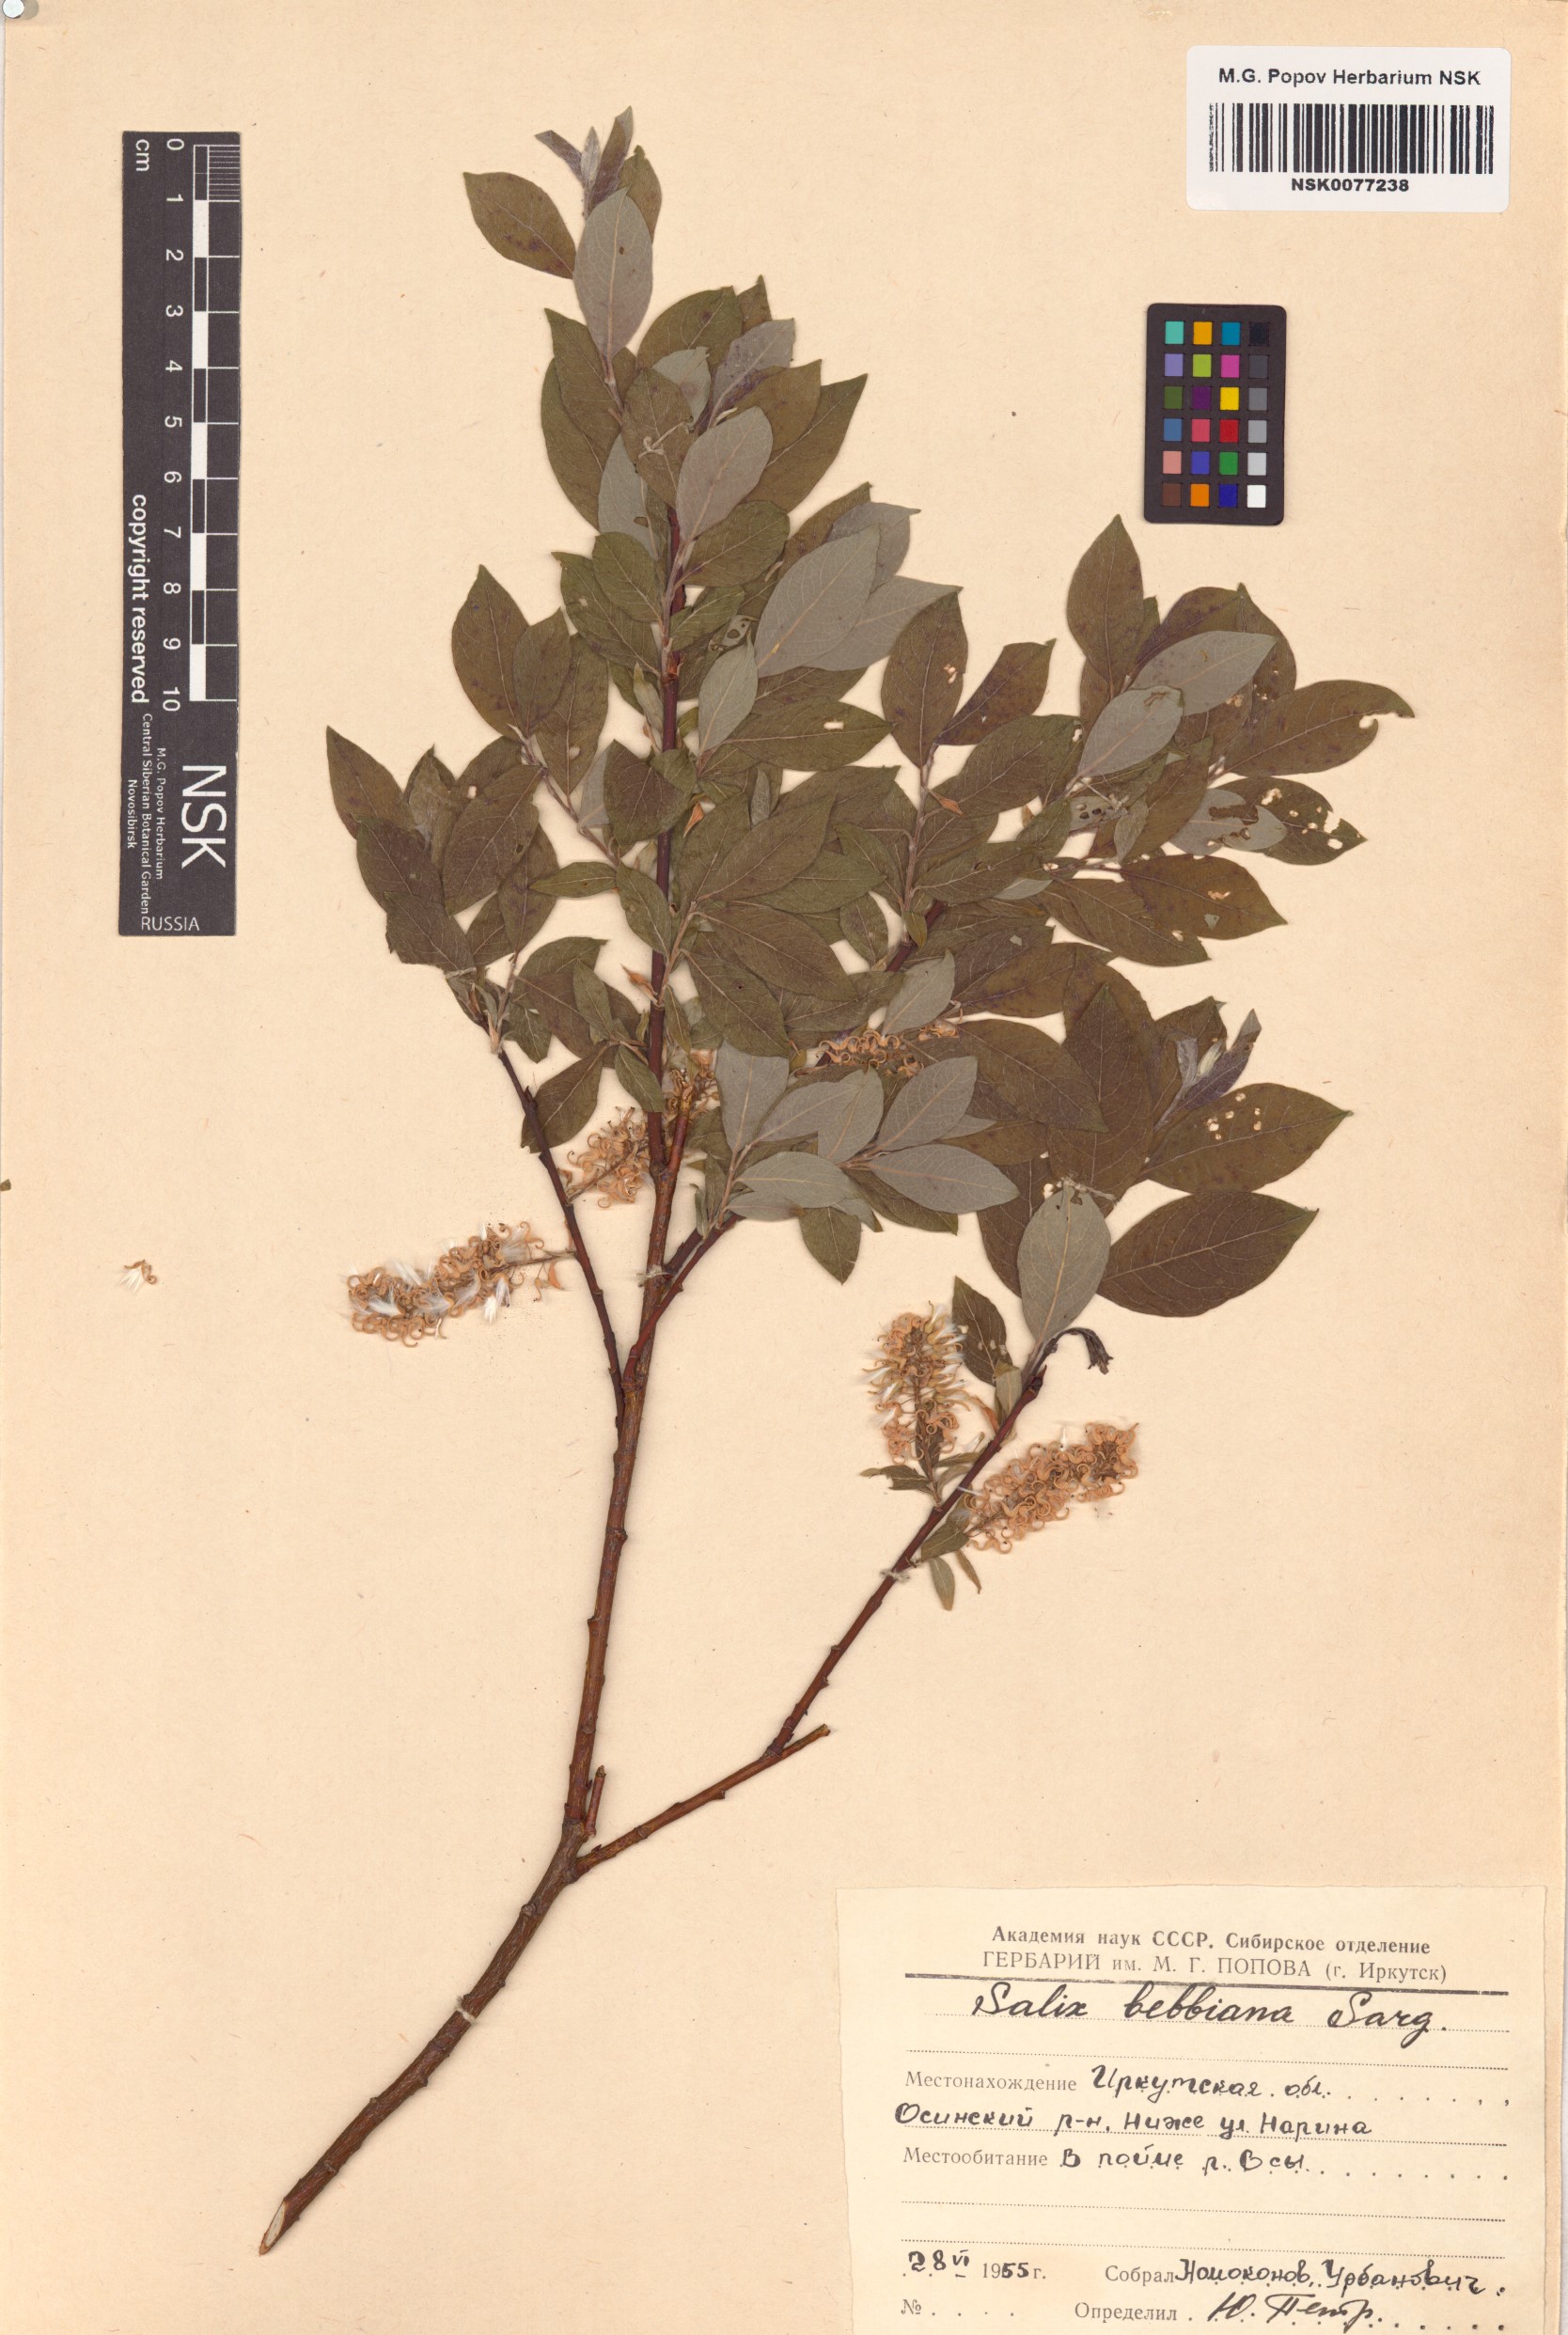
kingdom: Plantae
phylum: Tracheophyta
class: Magnoliopsida
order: Malpighiales
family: Salicaceae
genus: Salix
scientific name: Salix bebbiana
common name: Bebb's willow
